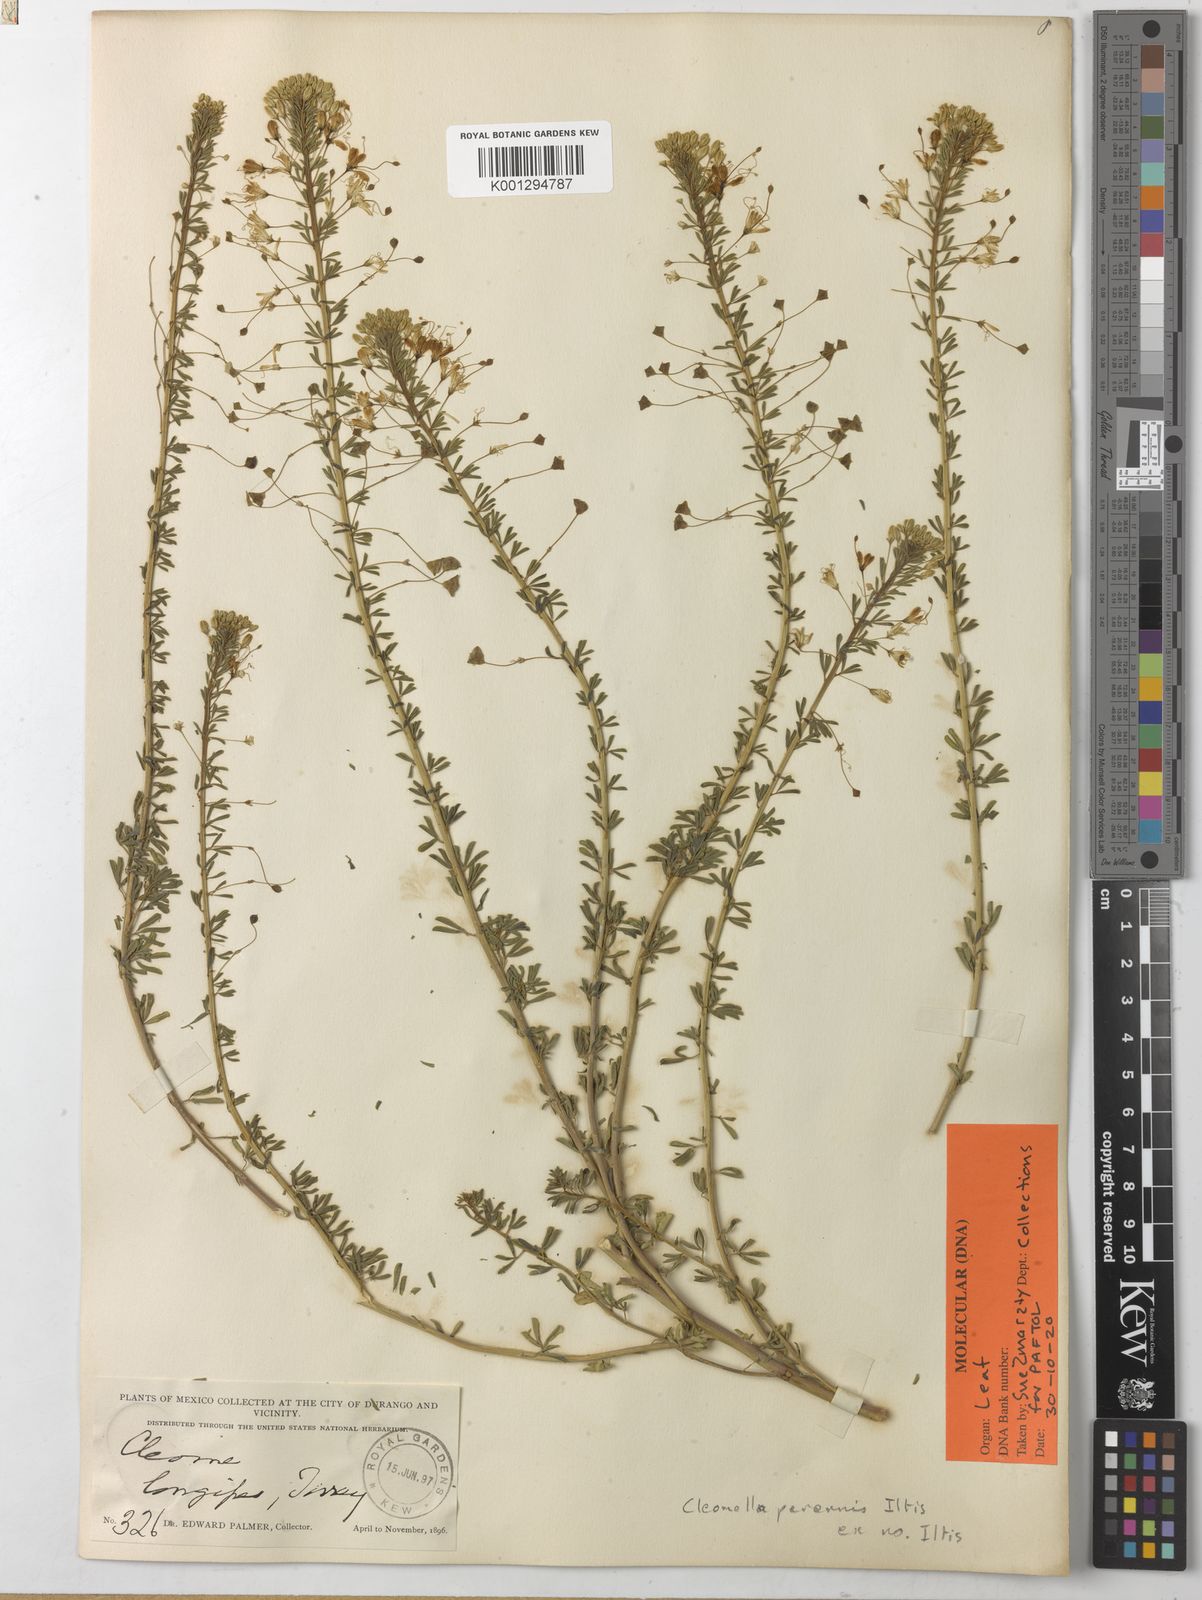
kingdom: Plantae
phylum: Tracheophyta
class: Magnoliopsida
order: Brassicales
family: Cleomaceae
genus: Cleomella
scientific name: Cleomella perennis
